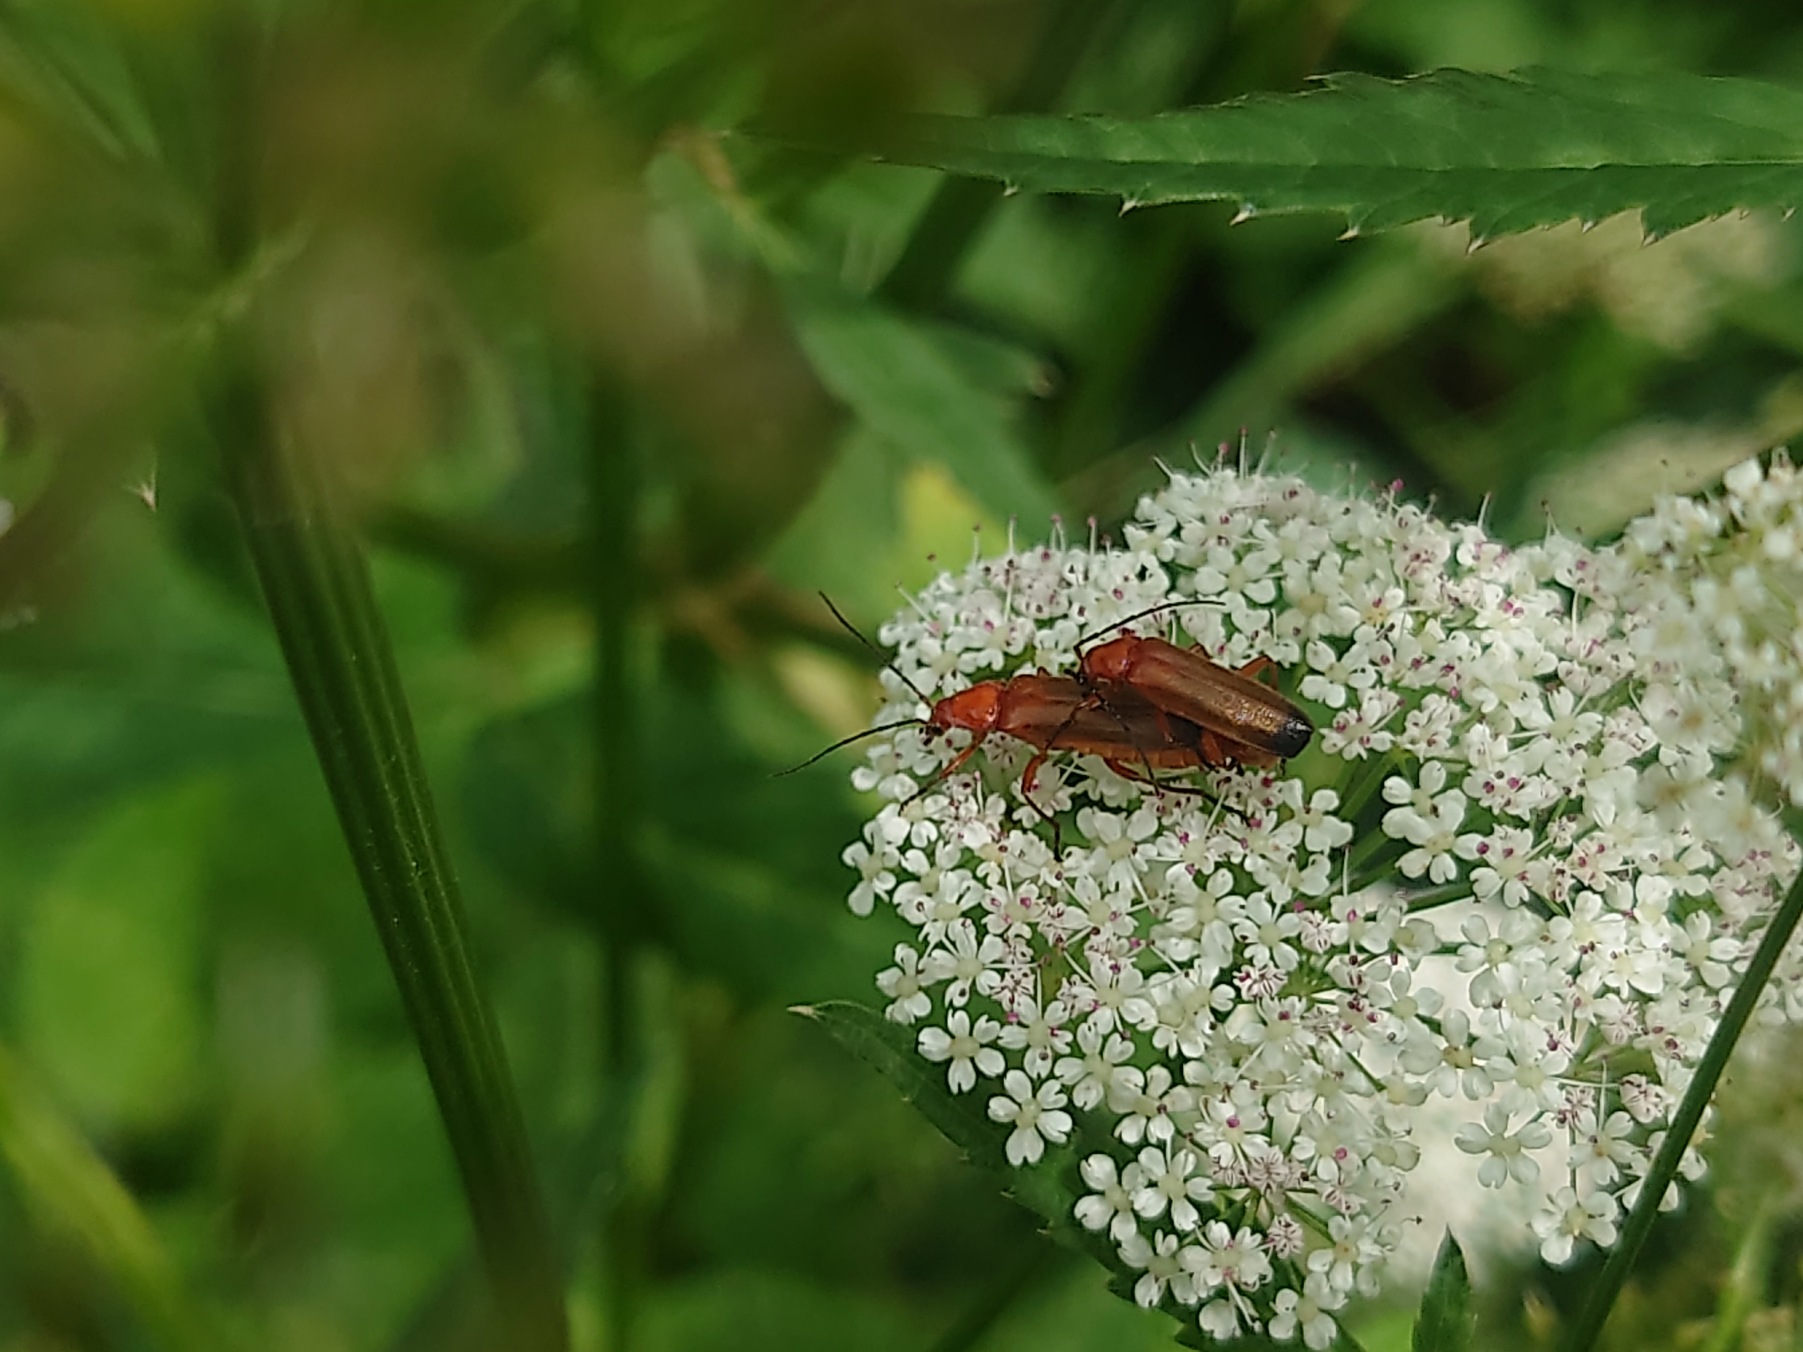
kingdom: Animalia
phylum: Arthropoda
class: Insecta
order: Coleoptera
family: Cantharidae
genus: Rhagonycha
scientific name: Rhagonycha fulva
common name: Præstebille
